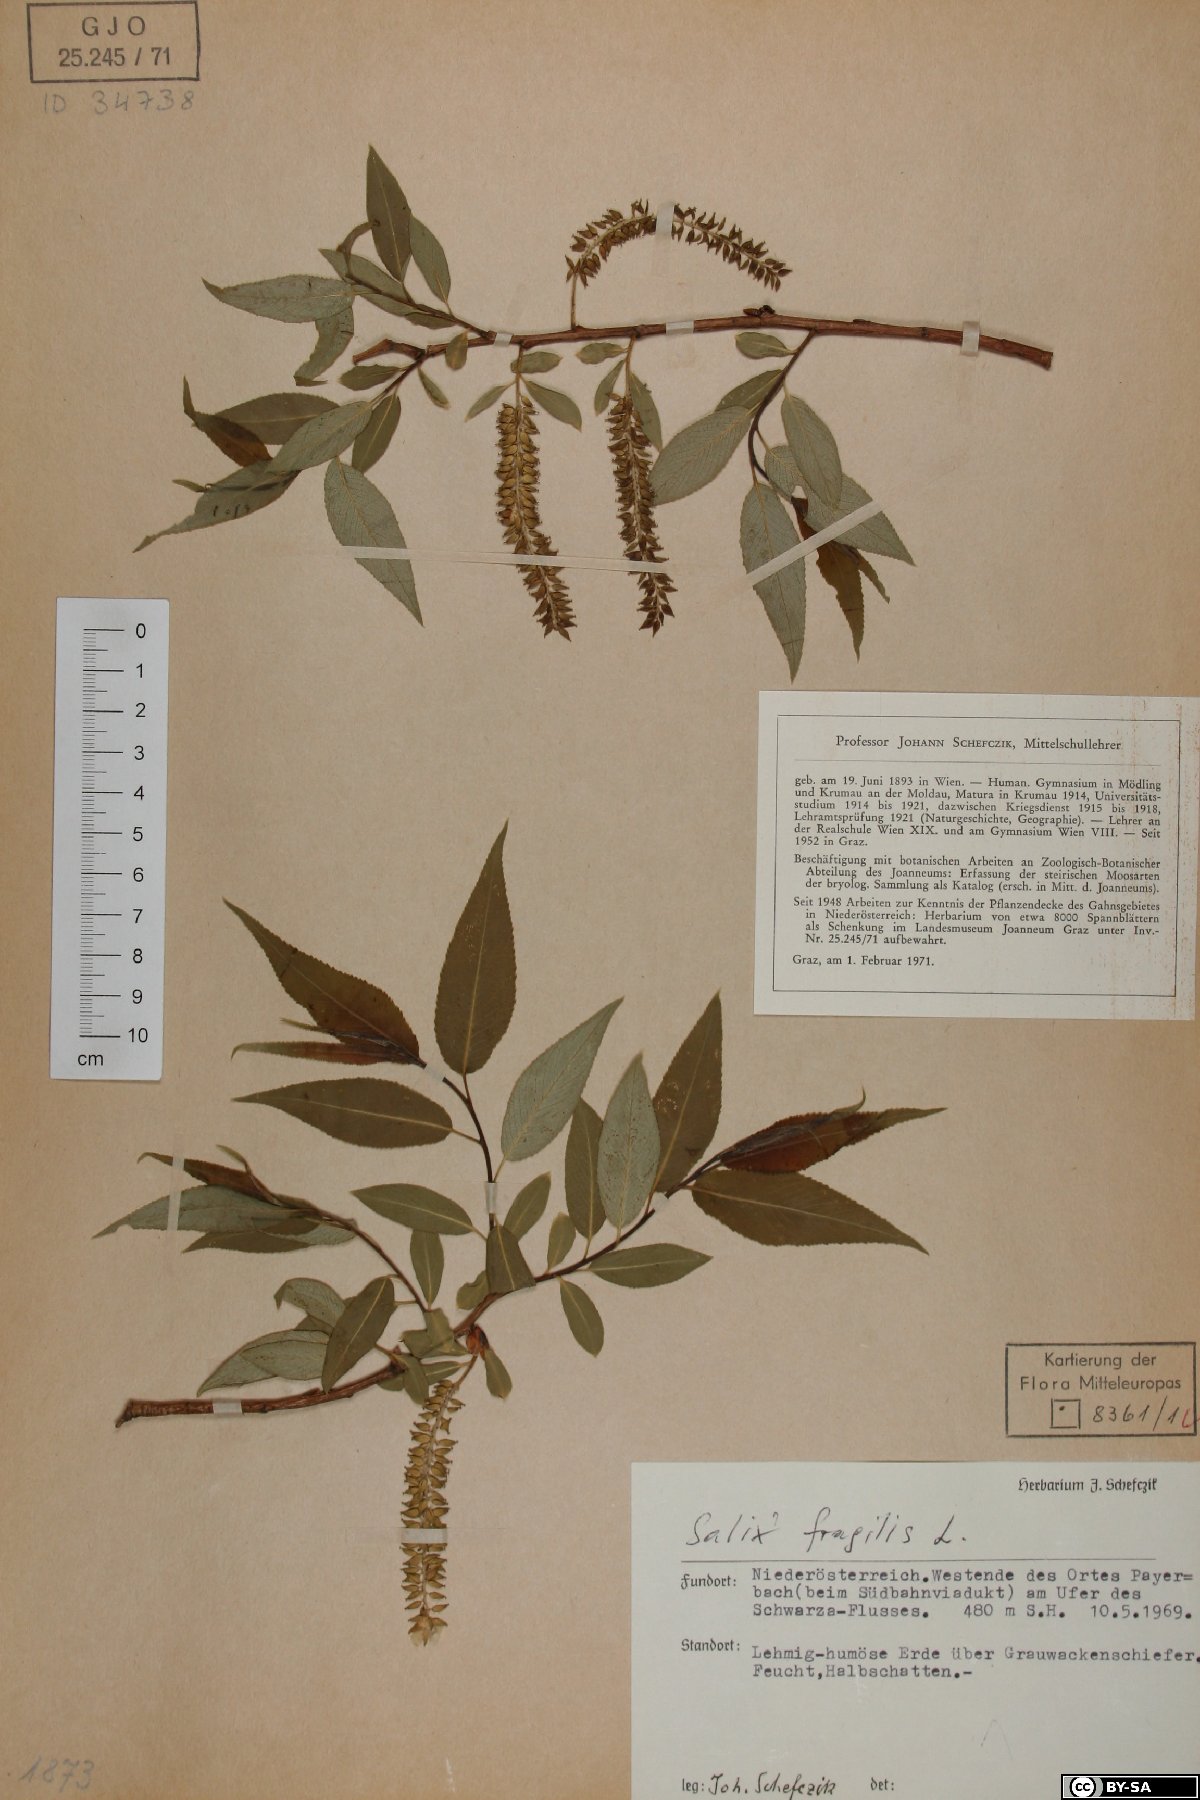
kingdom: Plantae
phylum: Tracheophyta
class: Magnoliopsida
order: Malpighiales
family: Salicaceae
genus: Salix
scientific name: Salix fragilis
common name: Crack willow
